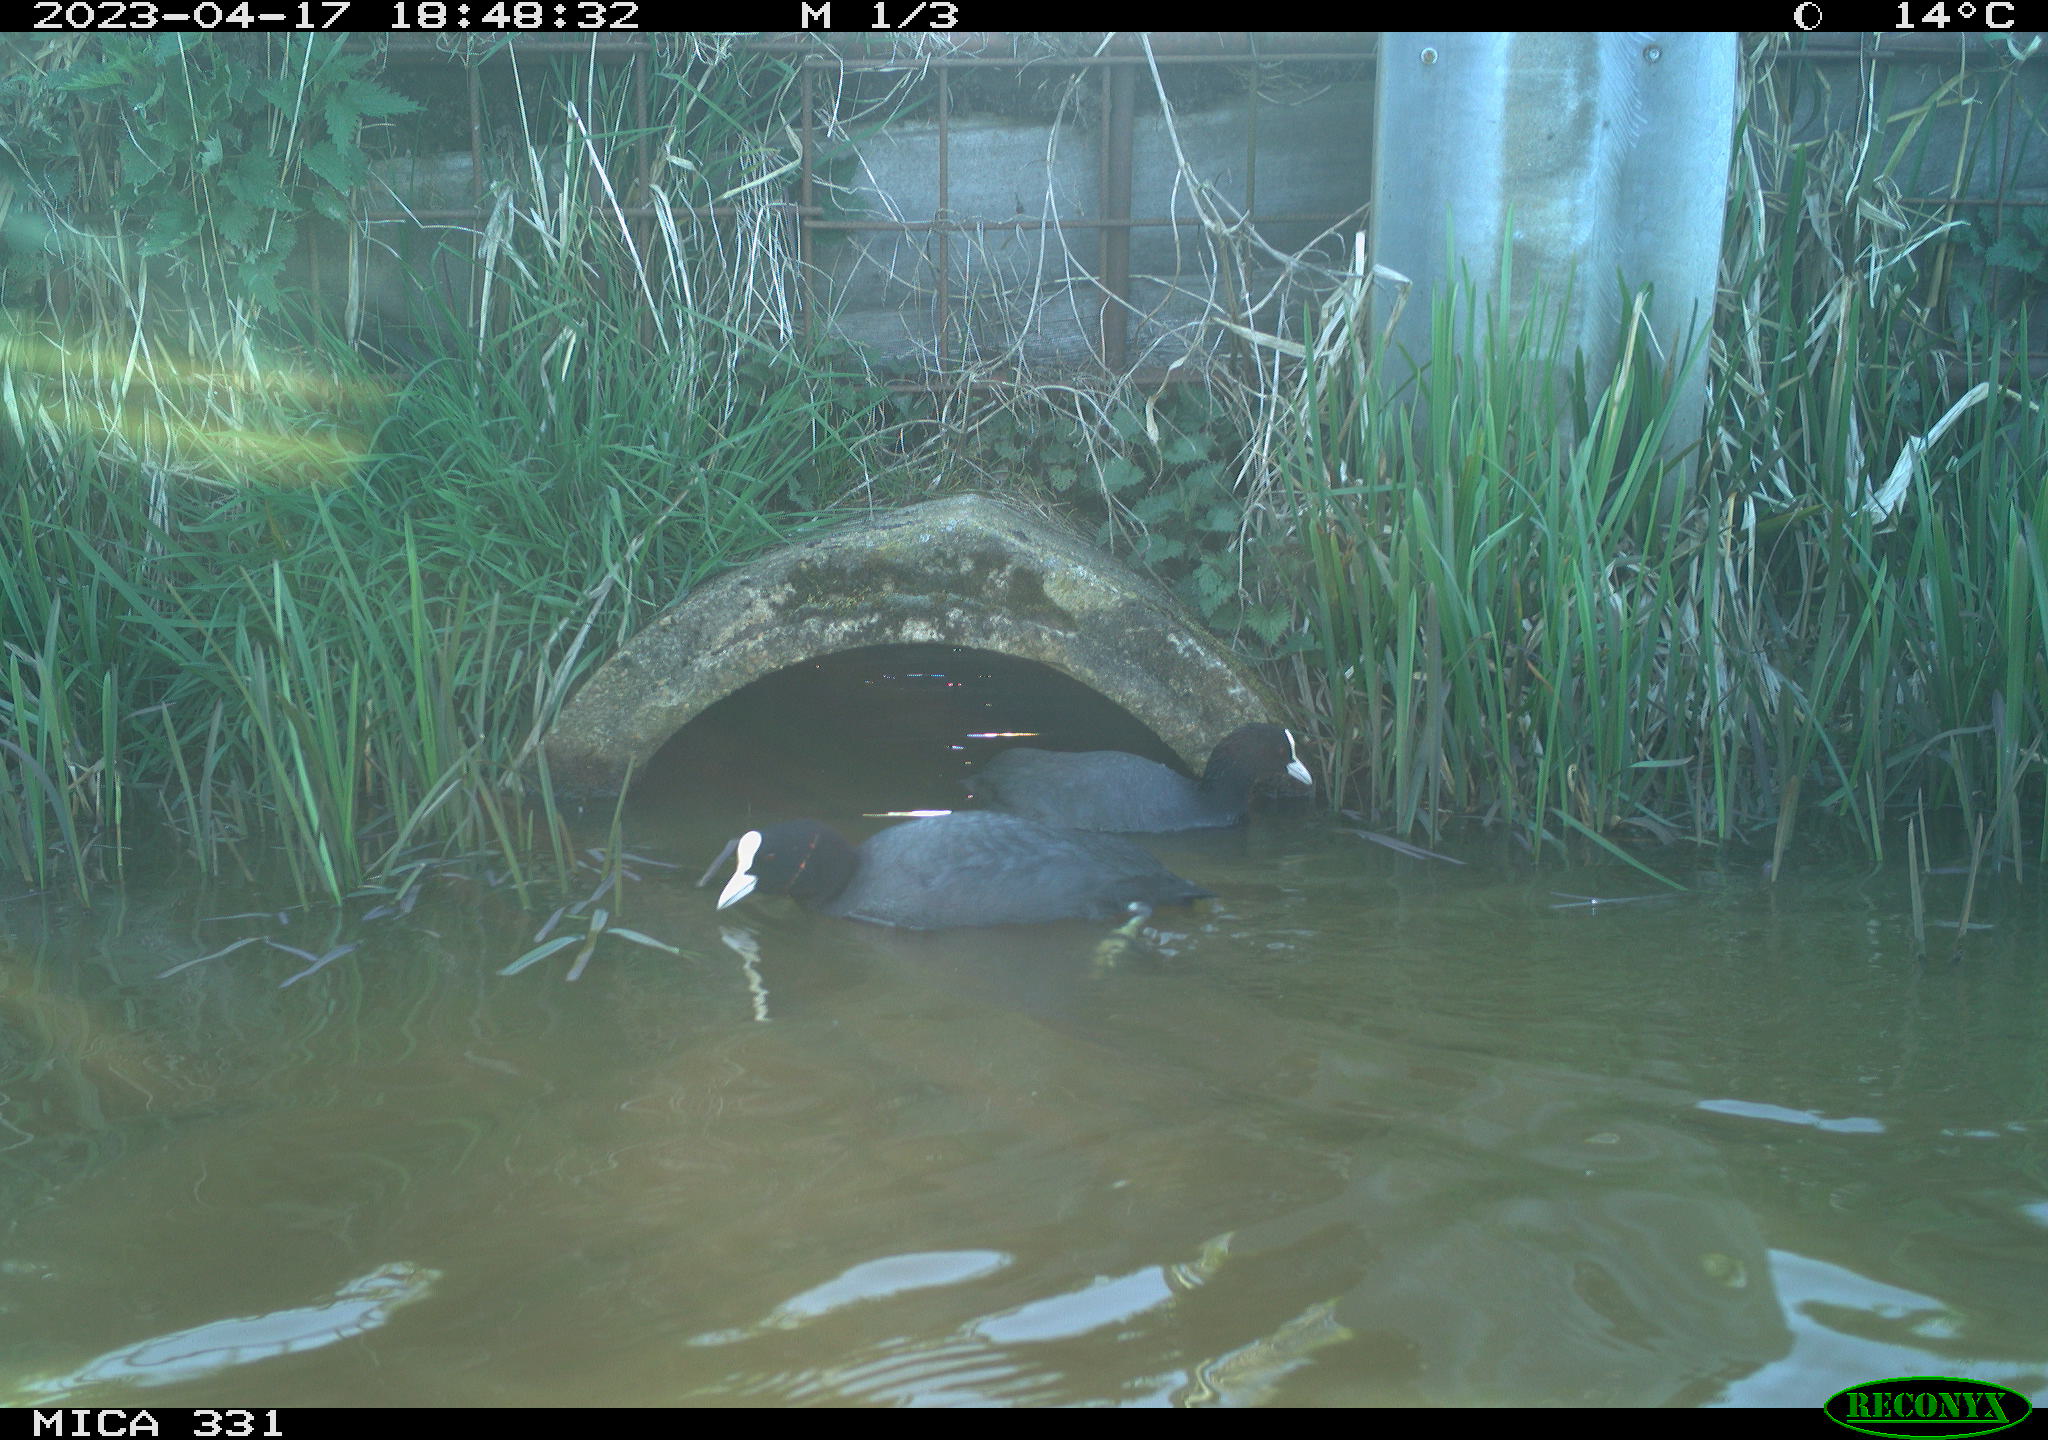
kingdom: Animalia
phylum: Chordata
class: Aves
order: Gruiformes
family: Rallidae
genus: Fulica
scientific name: Fulica atra
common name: Eurasian coot
